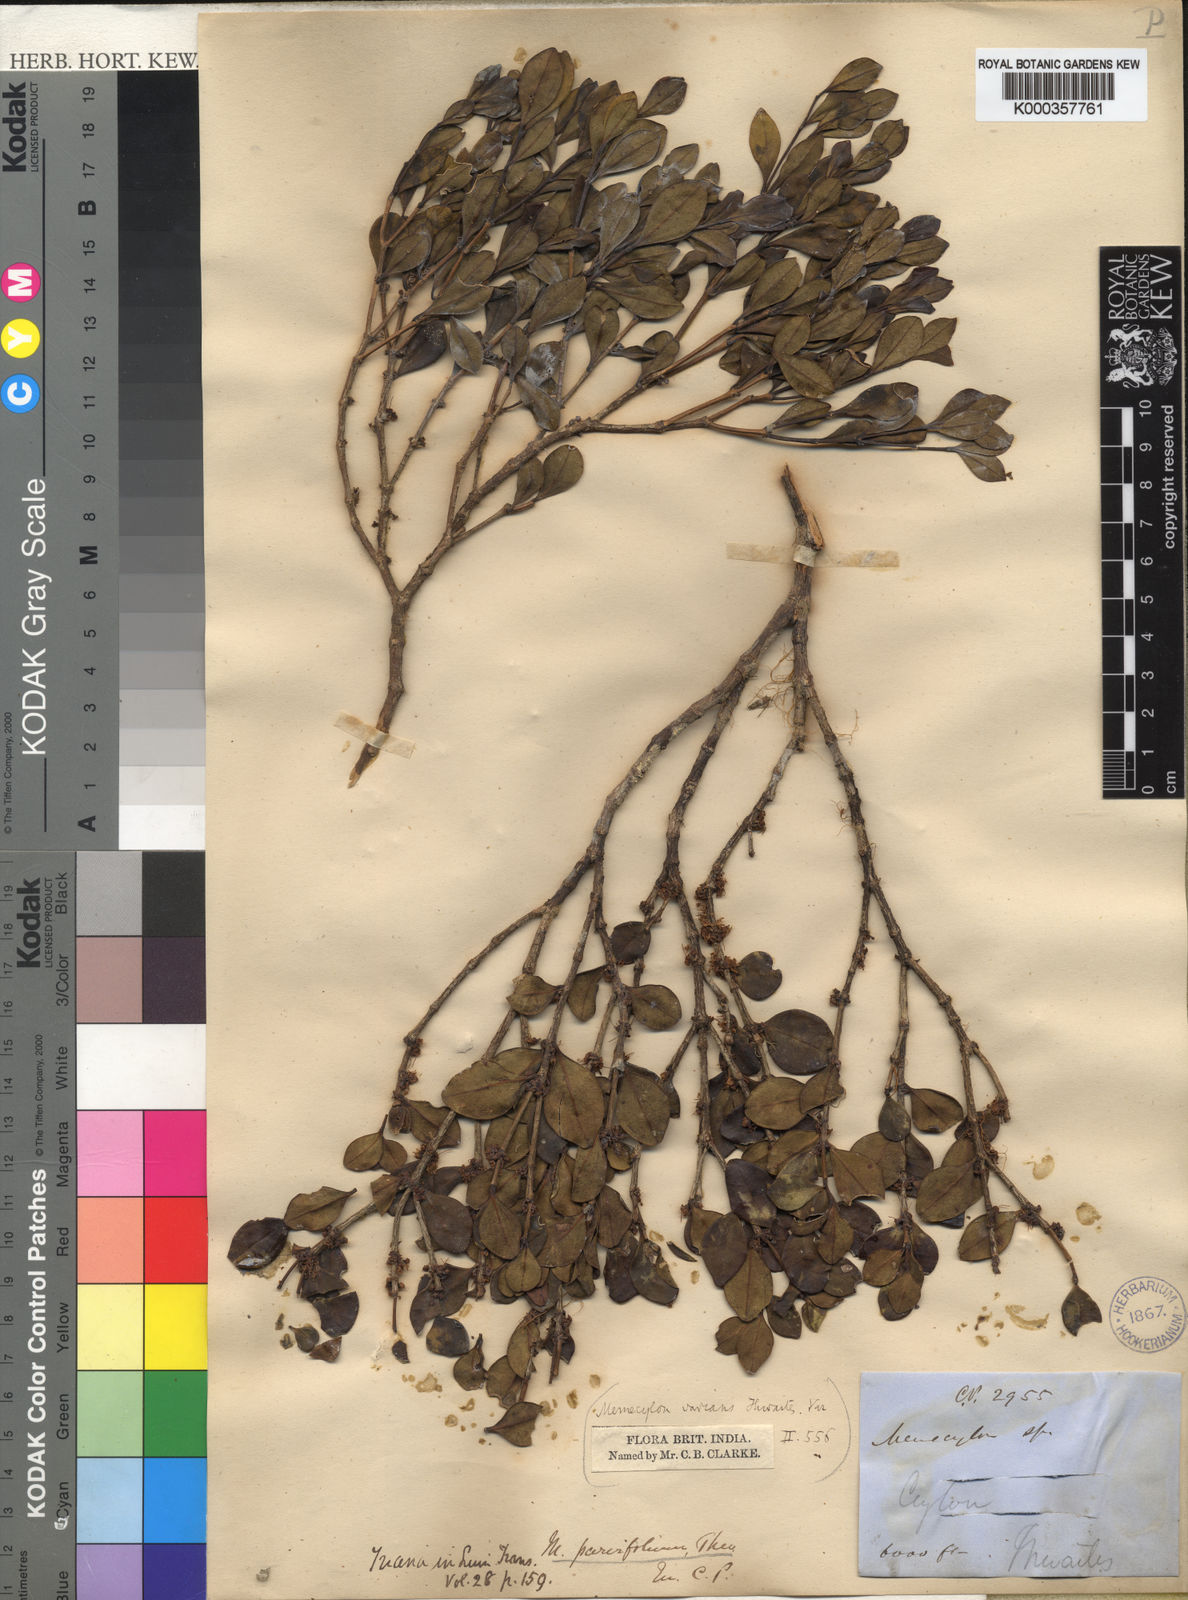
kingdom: Plantae
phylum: Tracheophyta
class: Magnoliopsida
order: Myrtales
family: Melastomataceae
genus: Memecylon
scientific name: Memecylon parvifolium
